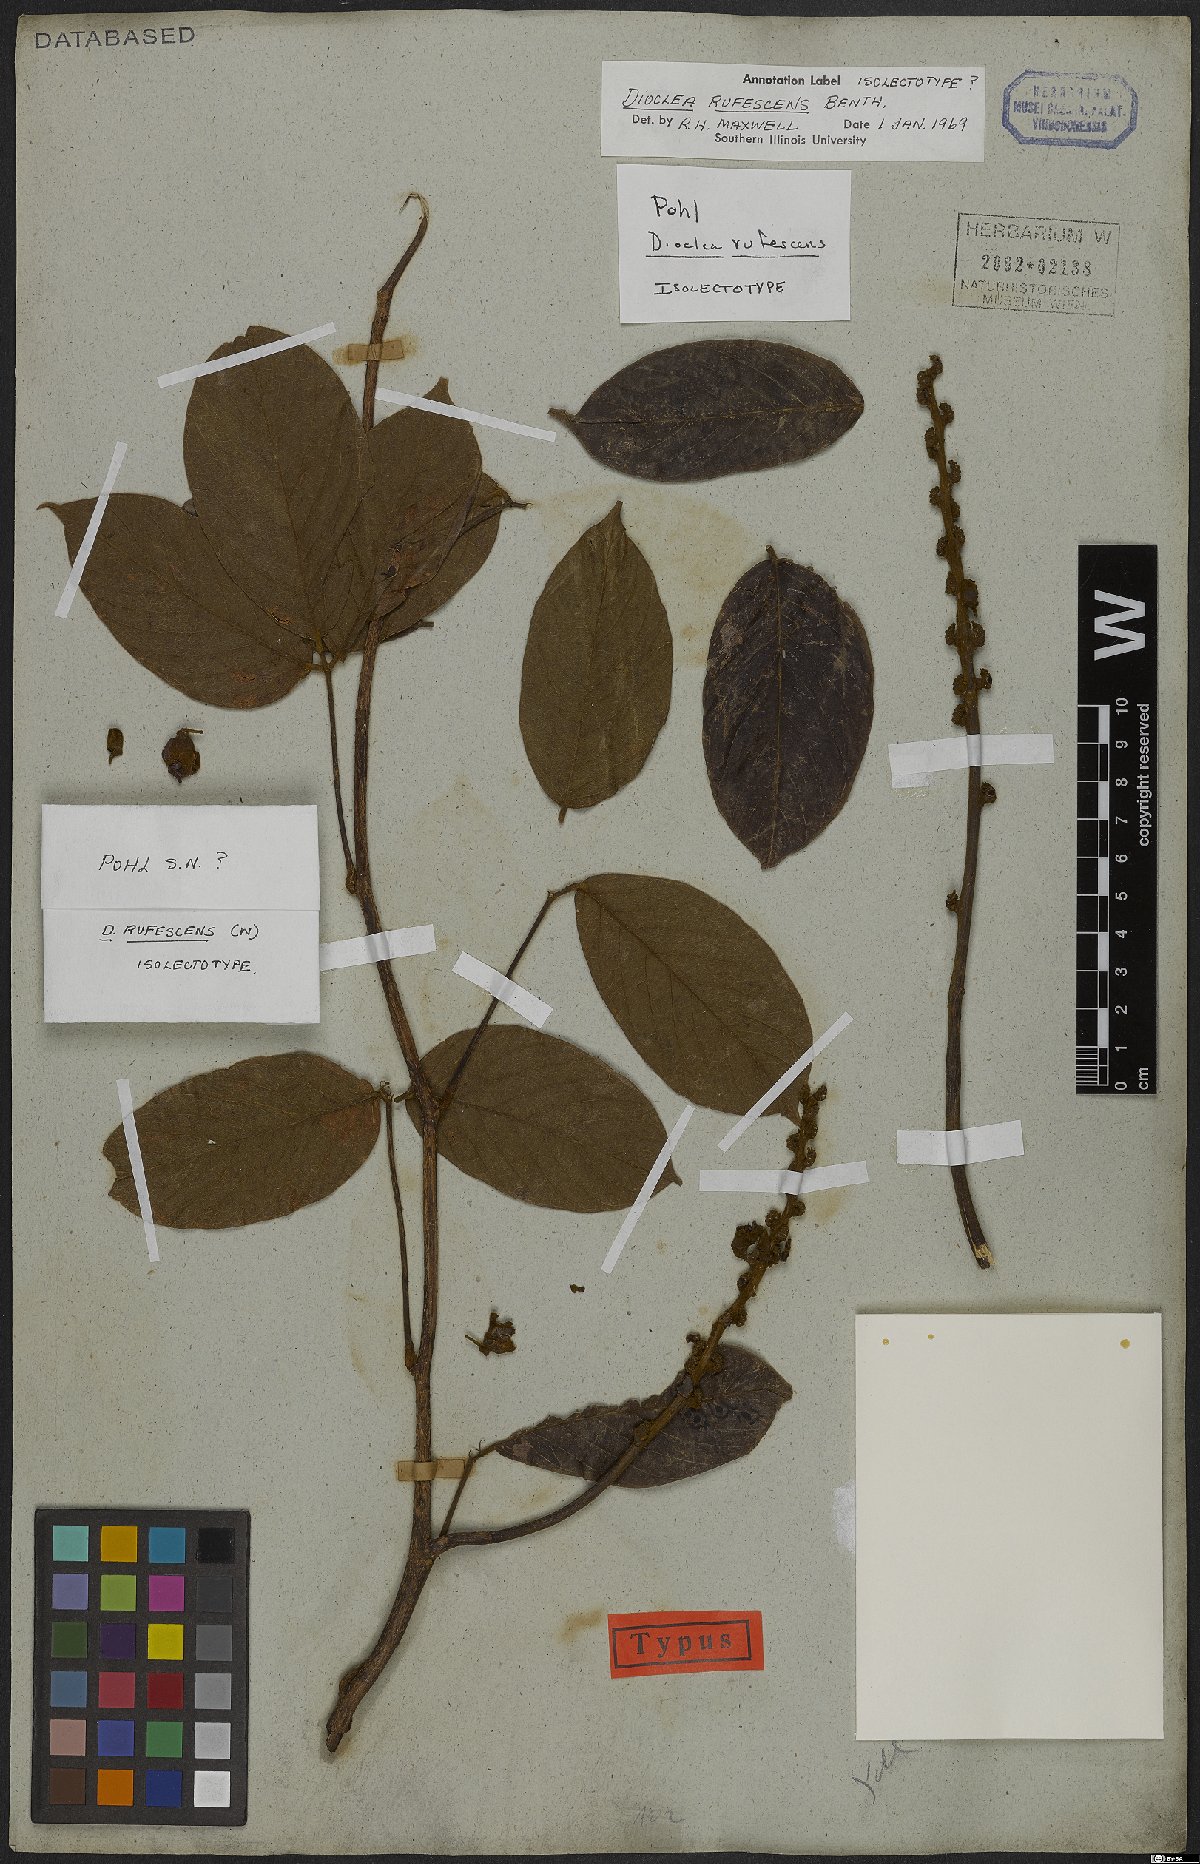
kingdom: Plantae
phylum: Tracheophyta
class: Magnoliopsida
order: Fabales
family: Fabaceae
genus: Macropsychanthus
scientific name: Macropsychanthus rufescens
